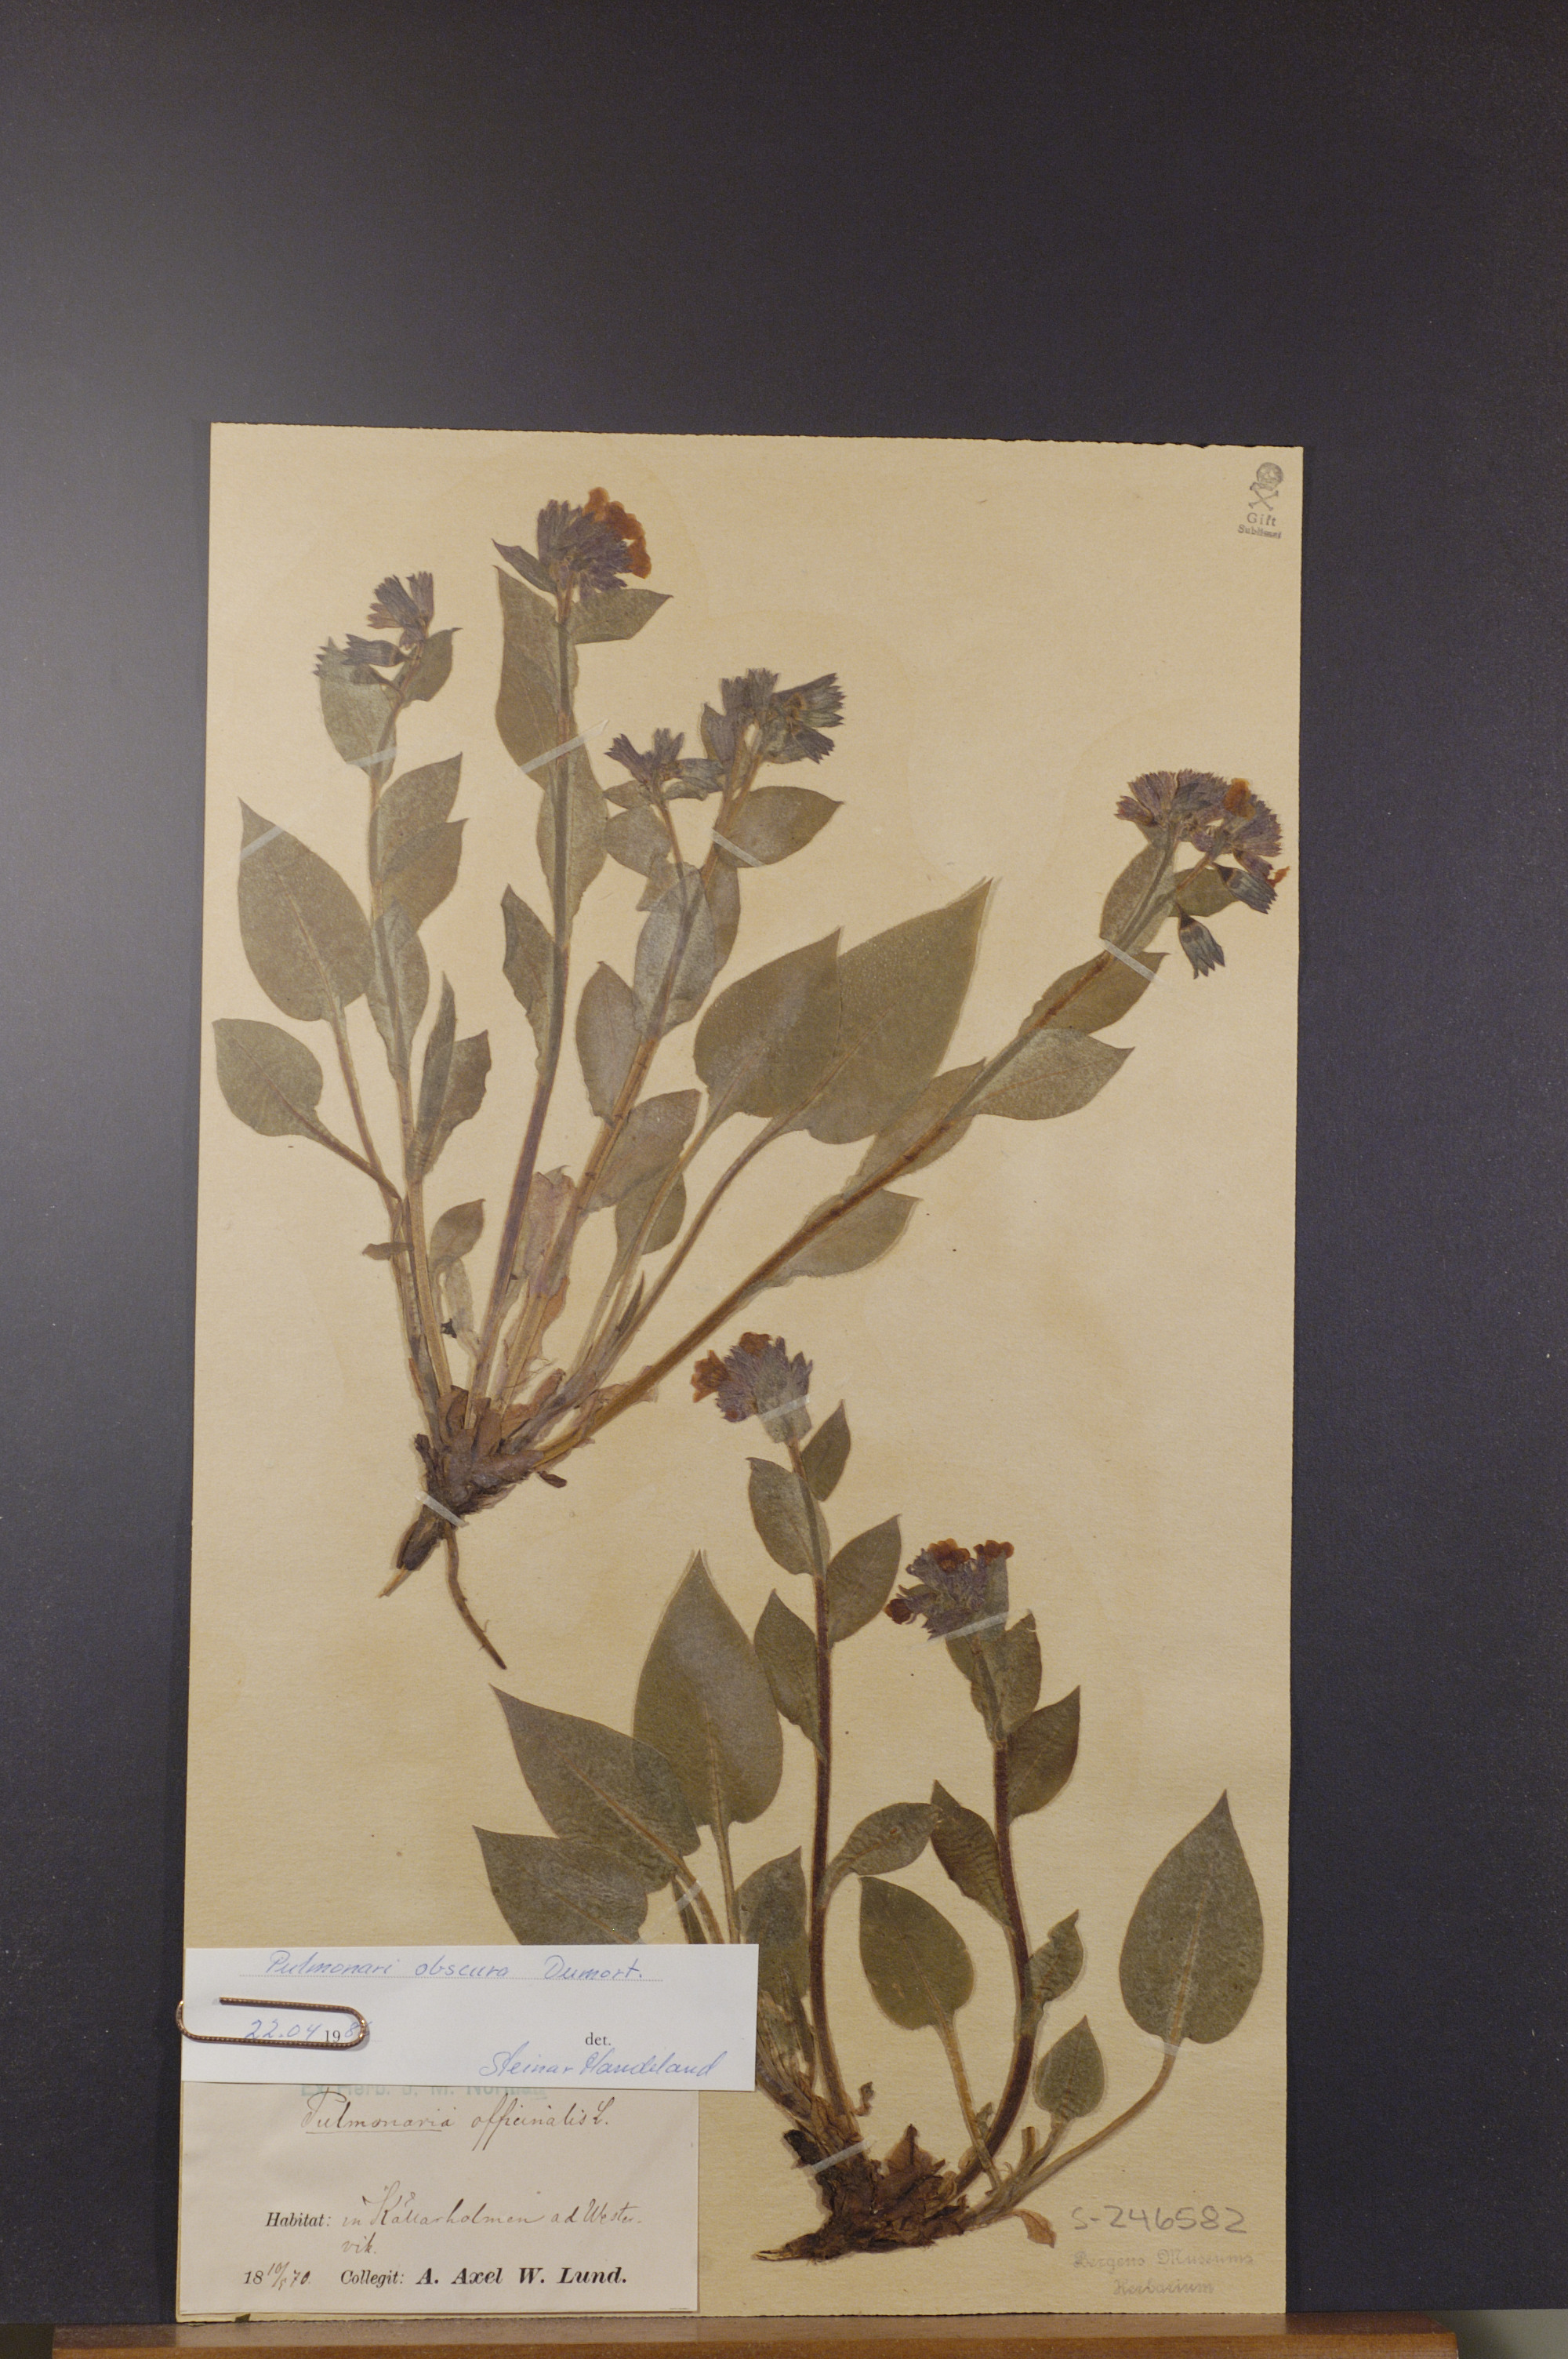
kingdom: Plantae
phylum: Tracheophyta
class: Magnoliopsida
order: Boraginales
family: Boraginaceae
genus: Pulmonaria
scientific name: Pulmonaria obscura
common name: Suffolk lungwort
